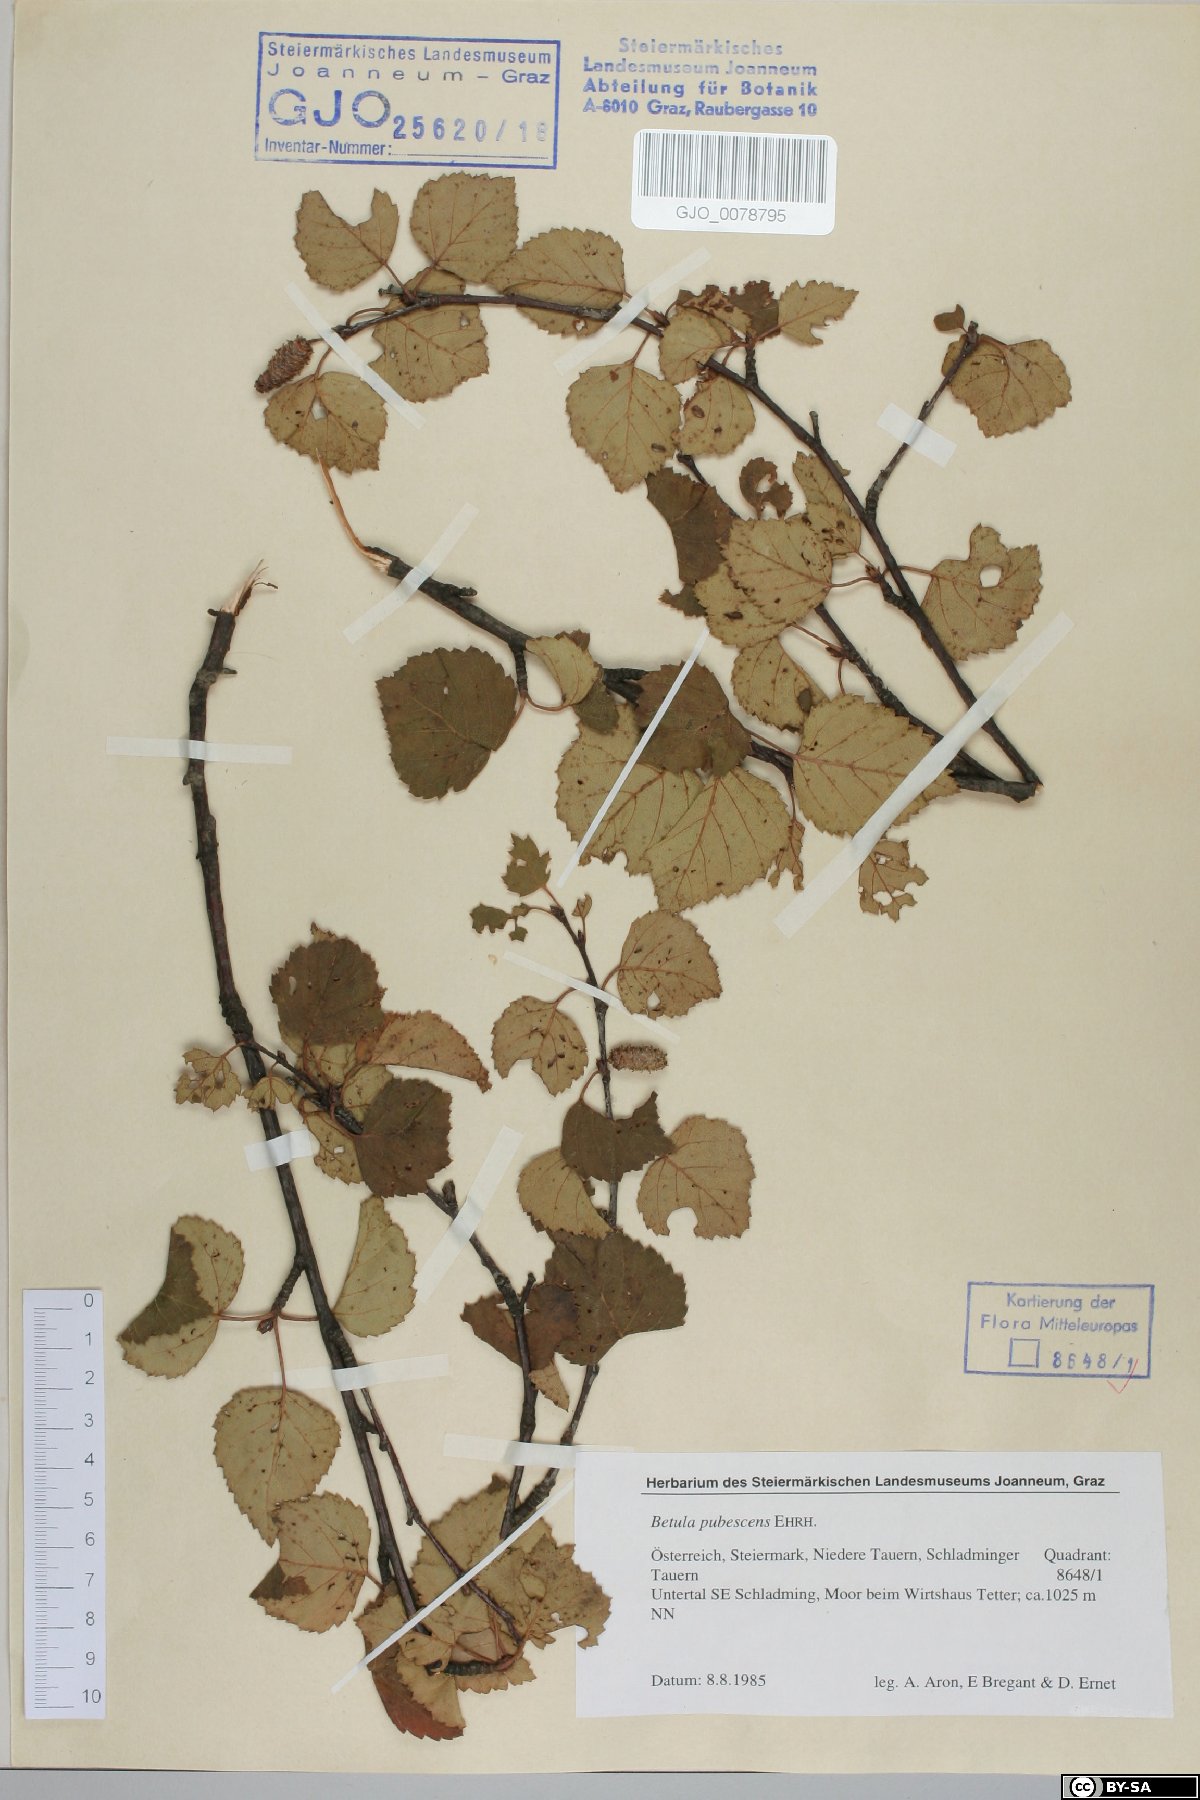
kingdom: Plantae
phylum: Tracheophyta
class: Magnoliopsida
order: Fagales
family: Betulaceae
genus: Betula
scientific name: Betula pubescens
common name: Downy birch
